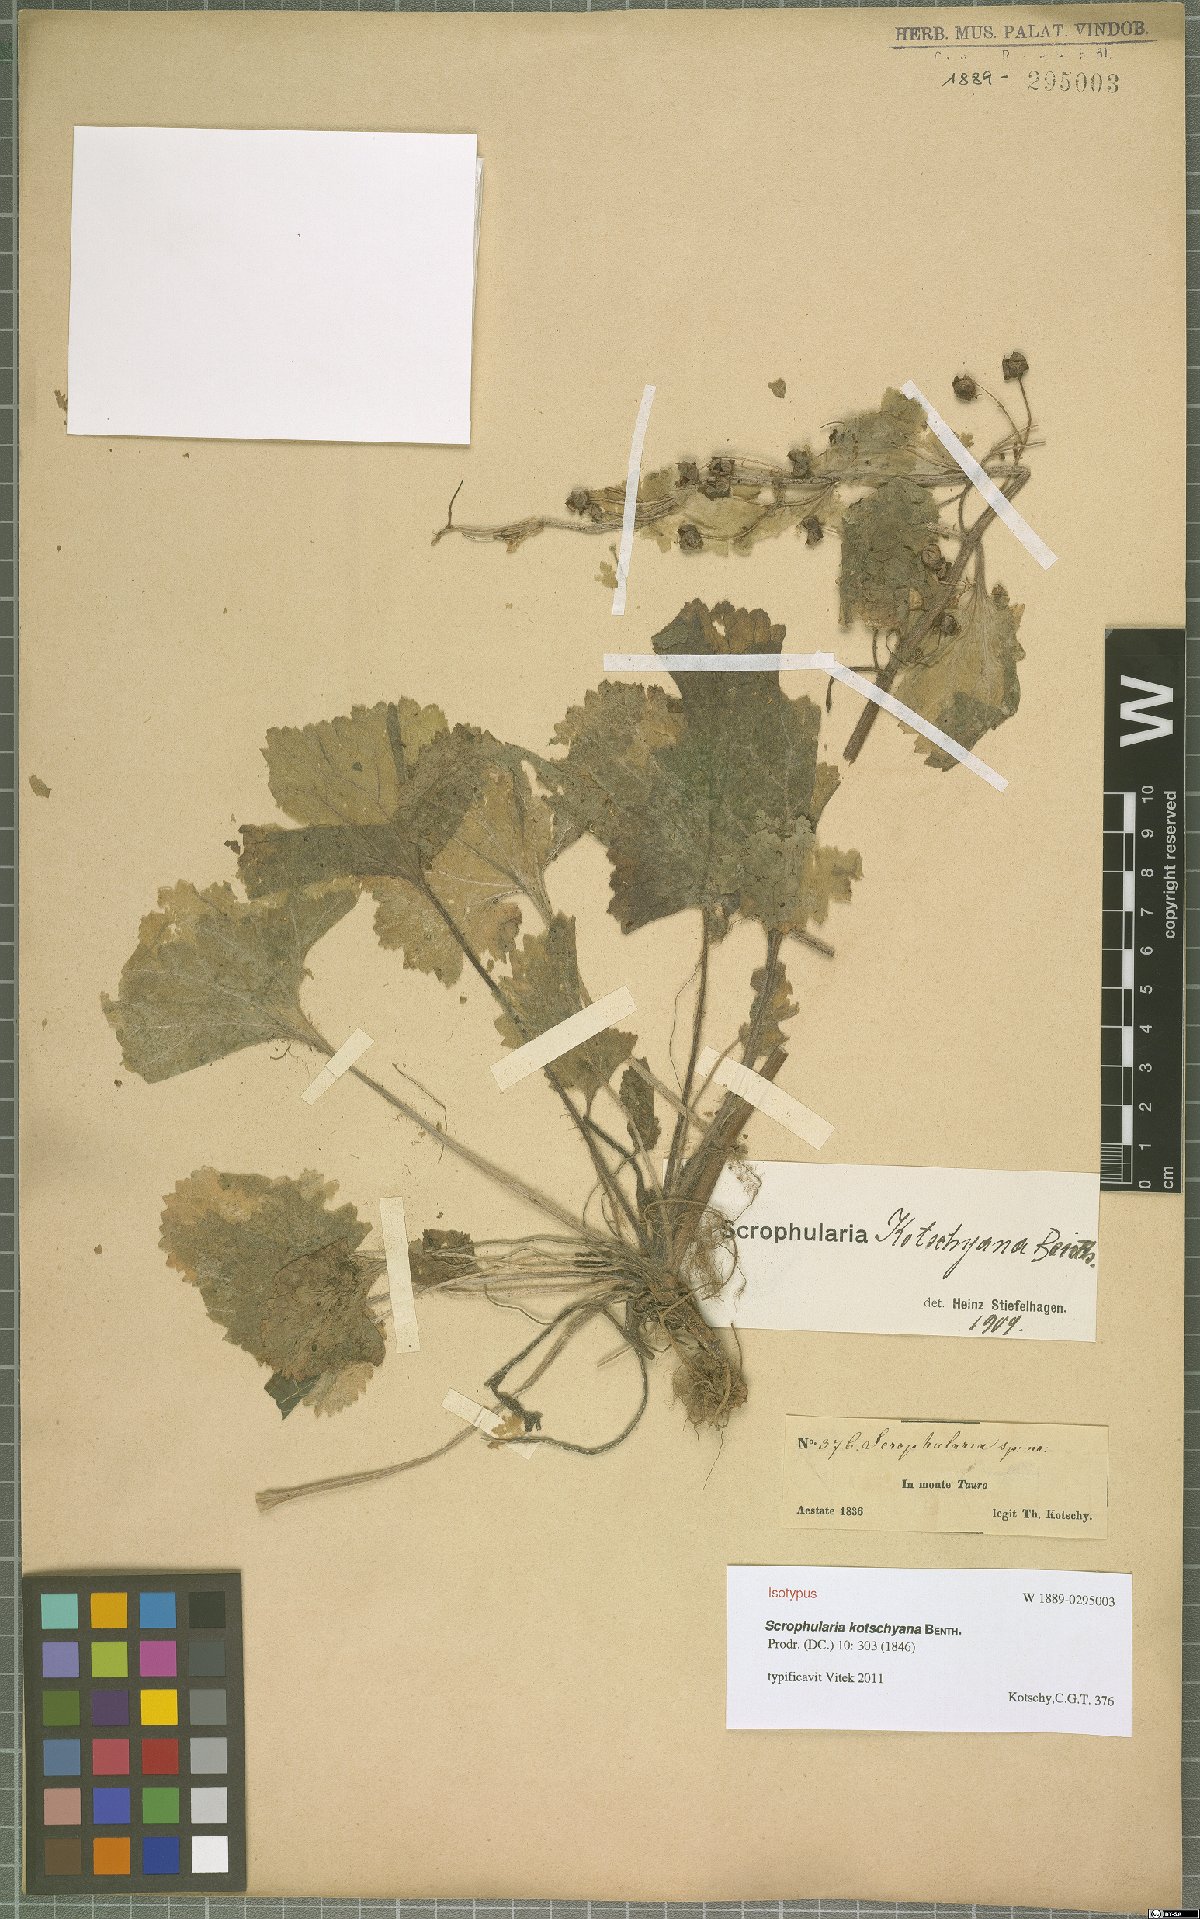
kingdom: Plantae
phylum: Tracheophyta
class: Magnoliopsida
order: Lamiales
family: Scrophulariaceae
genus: Scrophularia
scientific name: Scrophularia kotschyana
